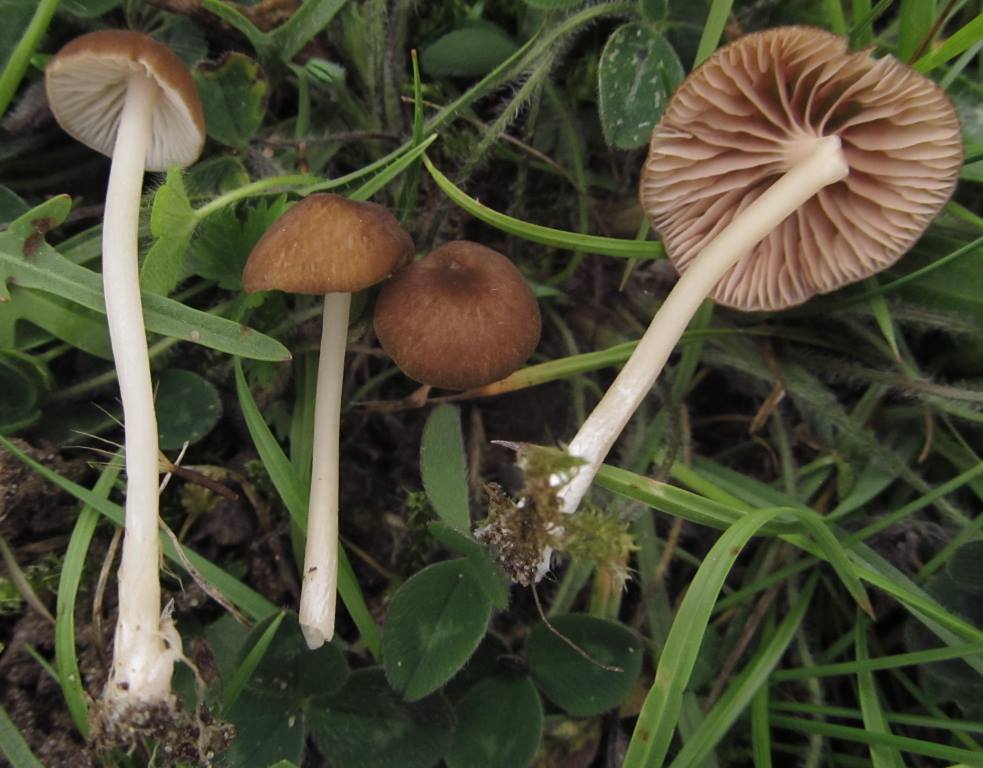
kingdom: Fungi
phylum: Basidiomycota
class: Agaricomycetes
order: Agaricales
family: Entolomataceae
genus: Entoloma
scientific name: Entoloma olivaceotinctum
